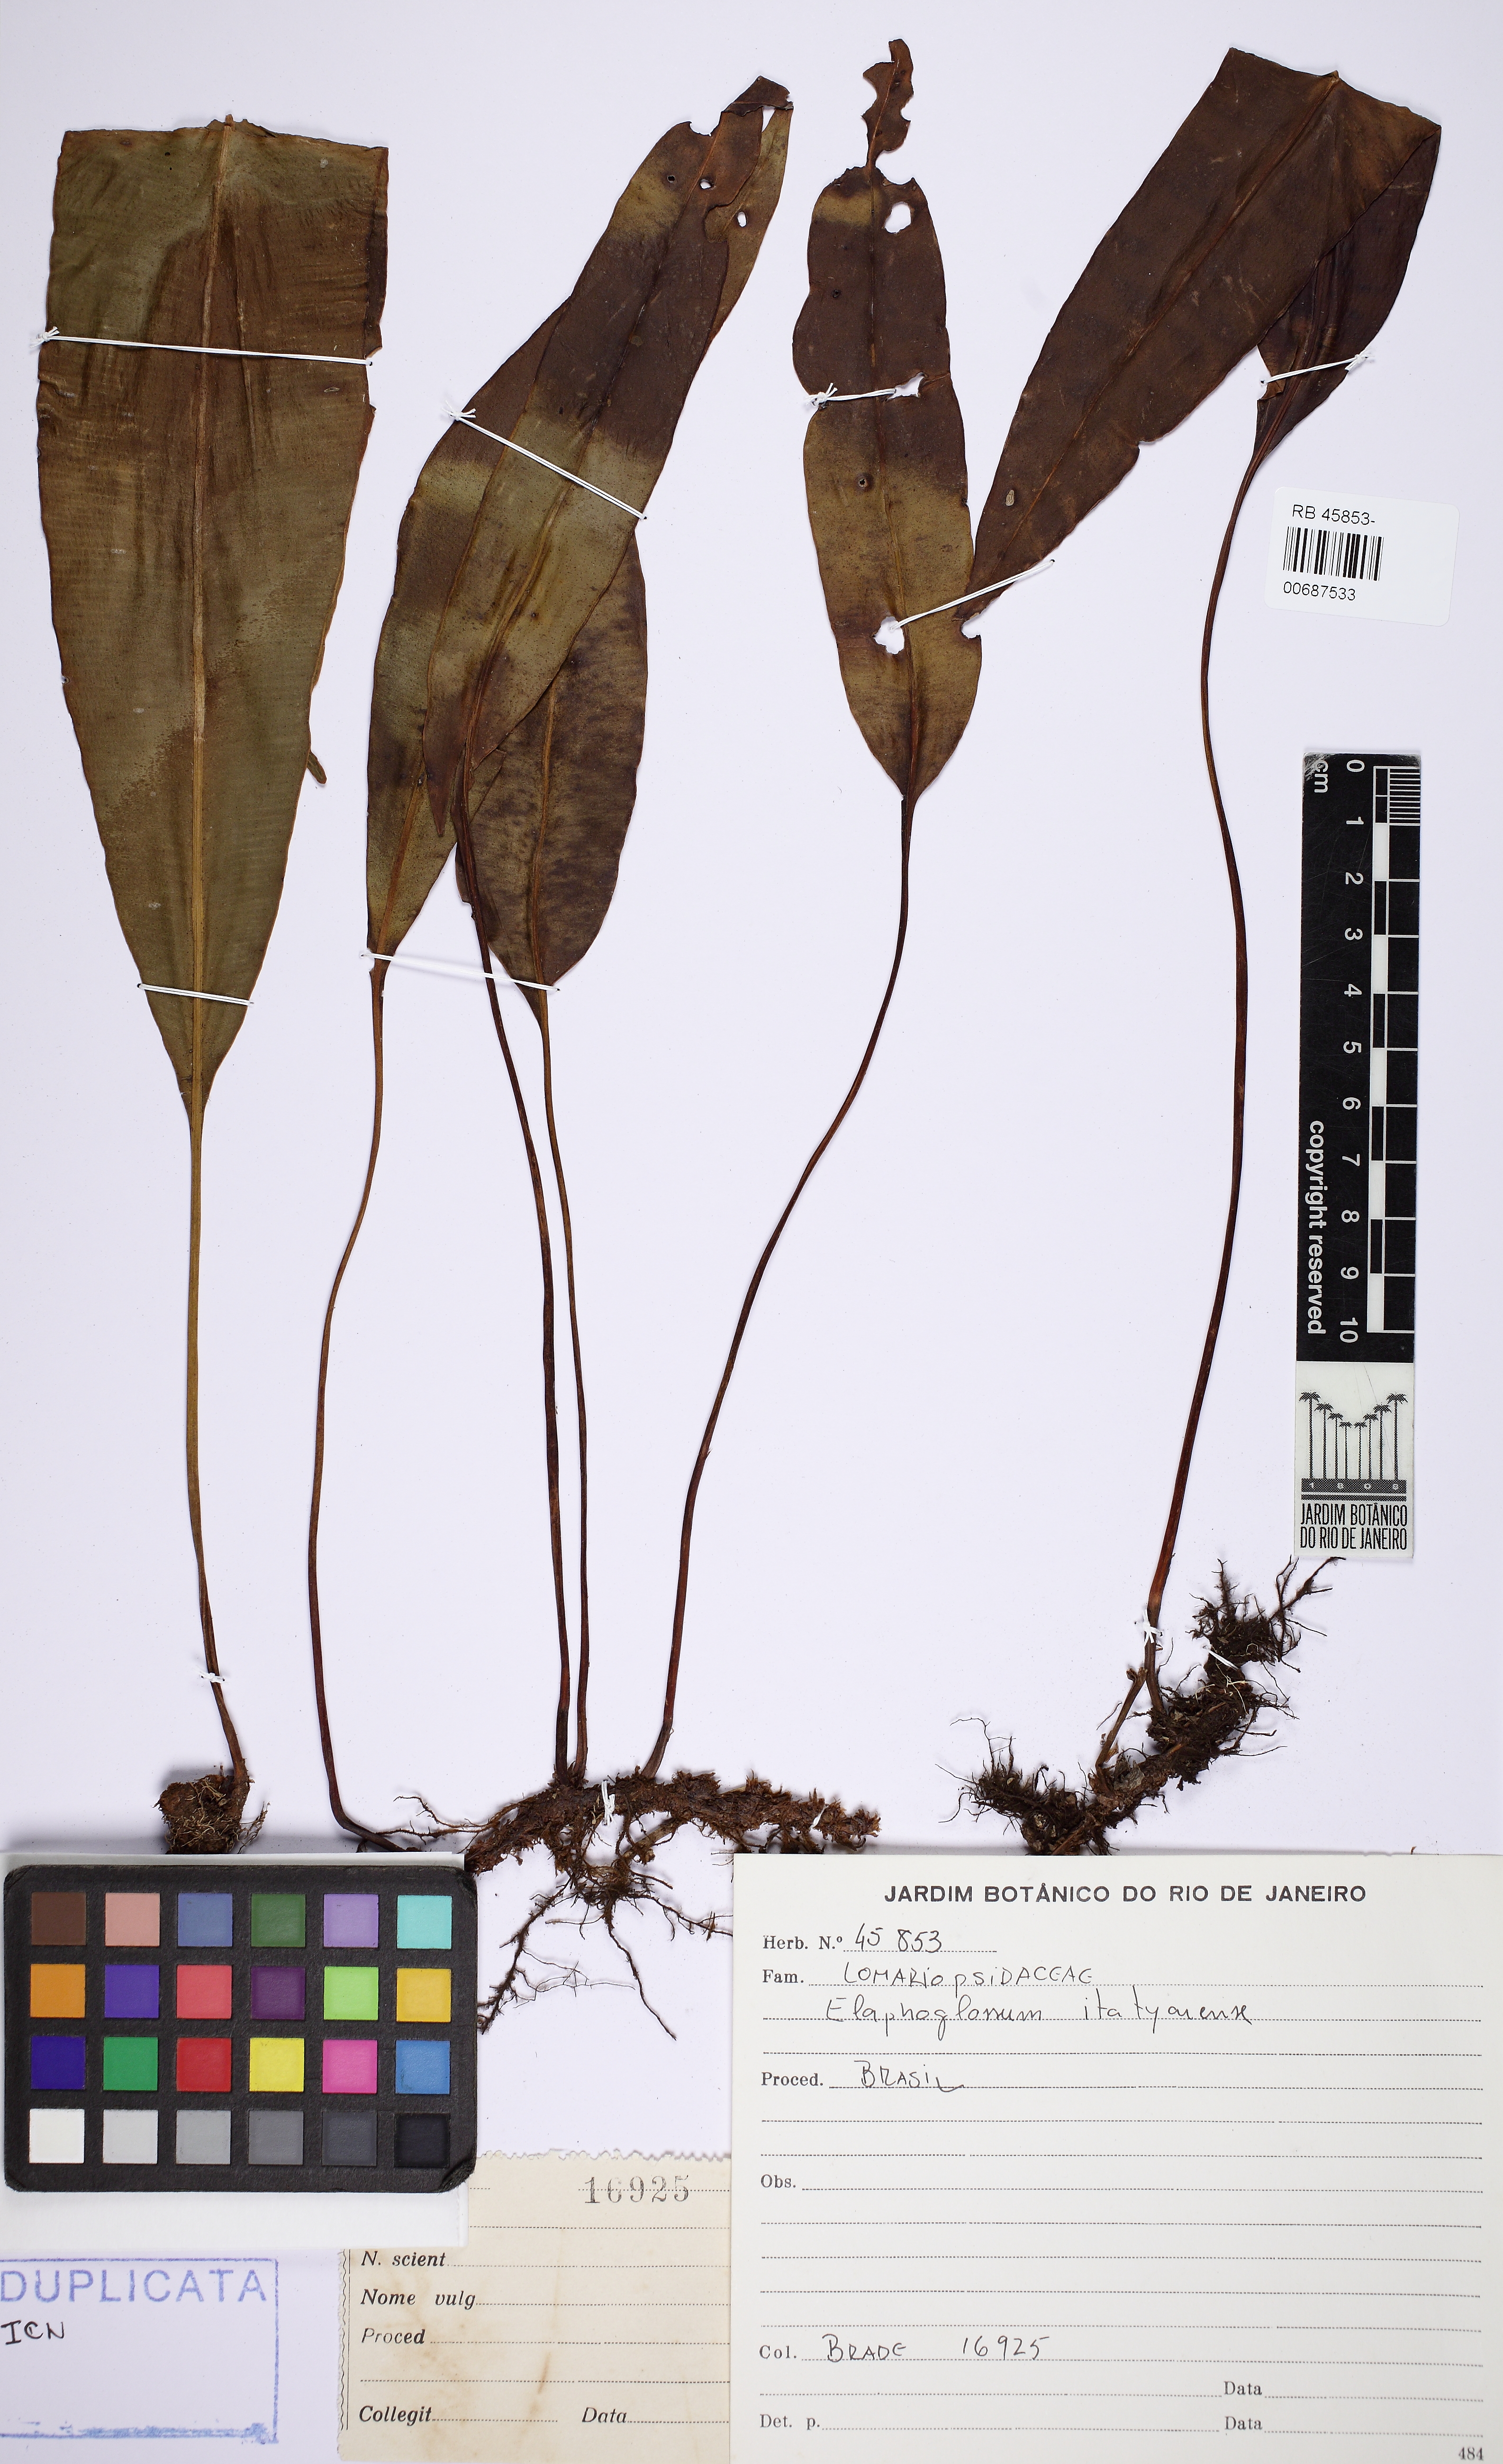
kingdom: Plantae
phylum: Tracheophyta
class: Polypodiopsida
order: Polypodiales
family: Dryopteridaceae
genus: Elaphoglossum
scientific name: Elaphoglossum itatiayense
